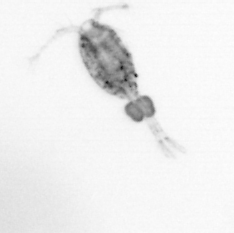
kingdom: Animalia
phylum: Arthropoda
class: Copepoda
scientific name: Copepoda
